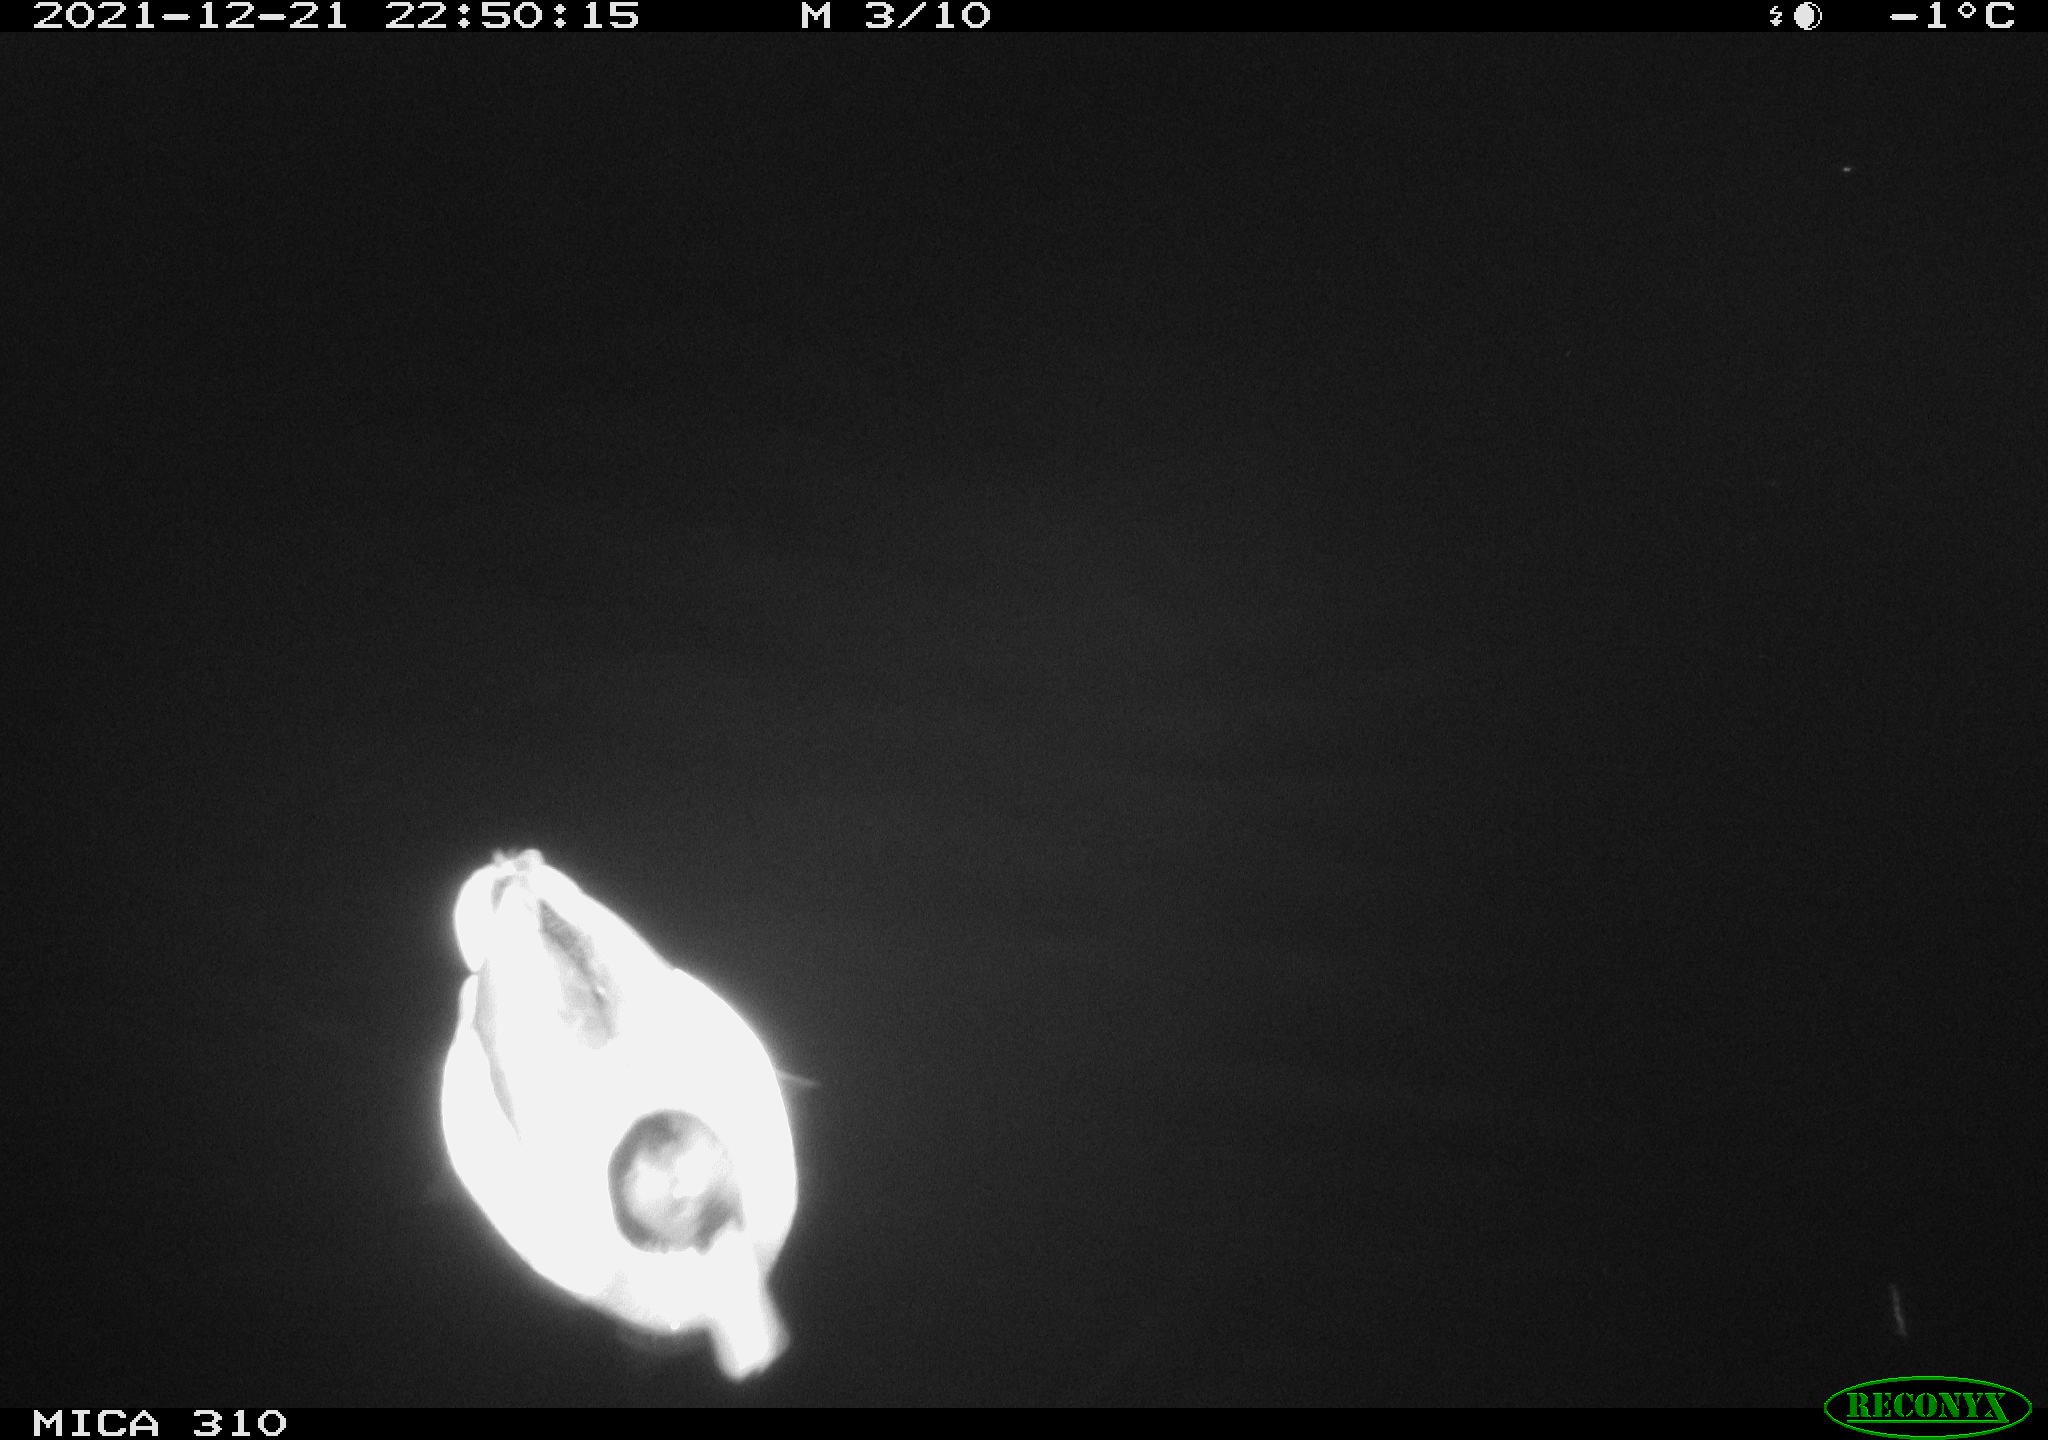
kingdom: Animalia
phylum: Chordata
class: Aves
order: Anseriformes
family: Anatidae
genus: Anas
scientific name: Anas platyrhynchos
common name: Mallard
